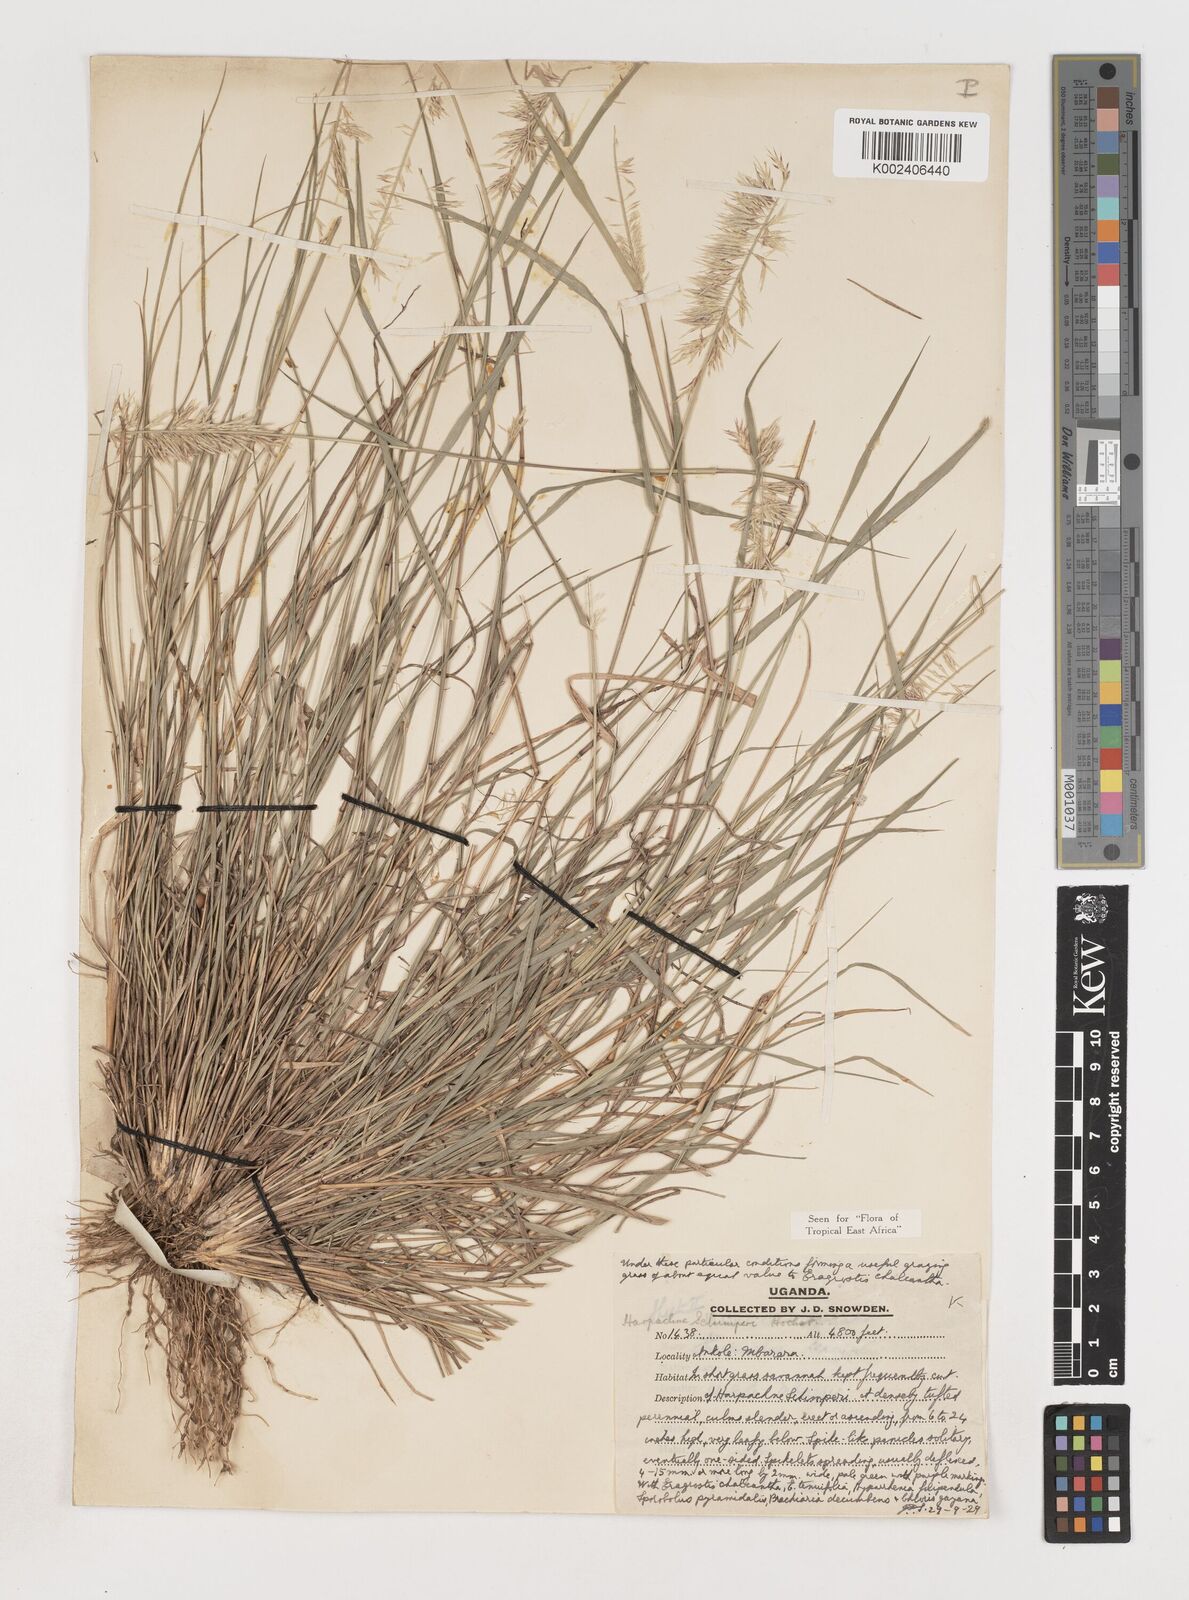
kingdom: Plantae
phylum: Tracheophyta
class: Liliopsida
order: Poales
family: Poaceae
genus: Harpachne
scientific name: Harpachne schimperi
